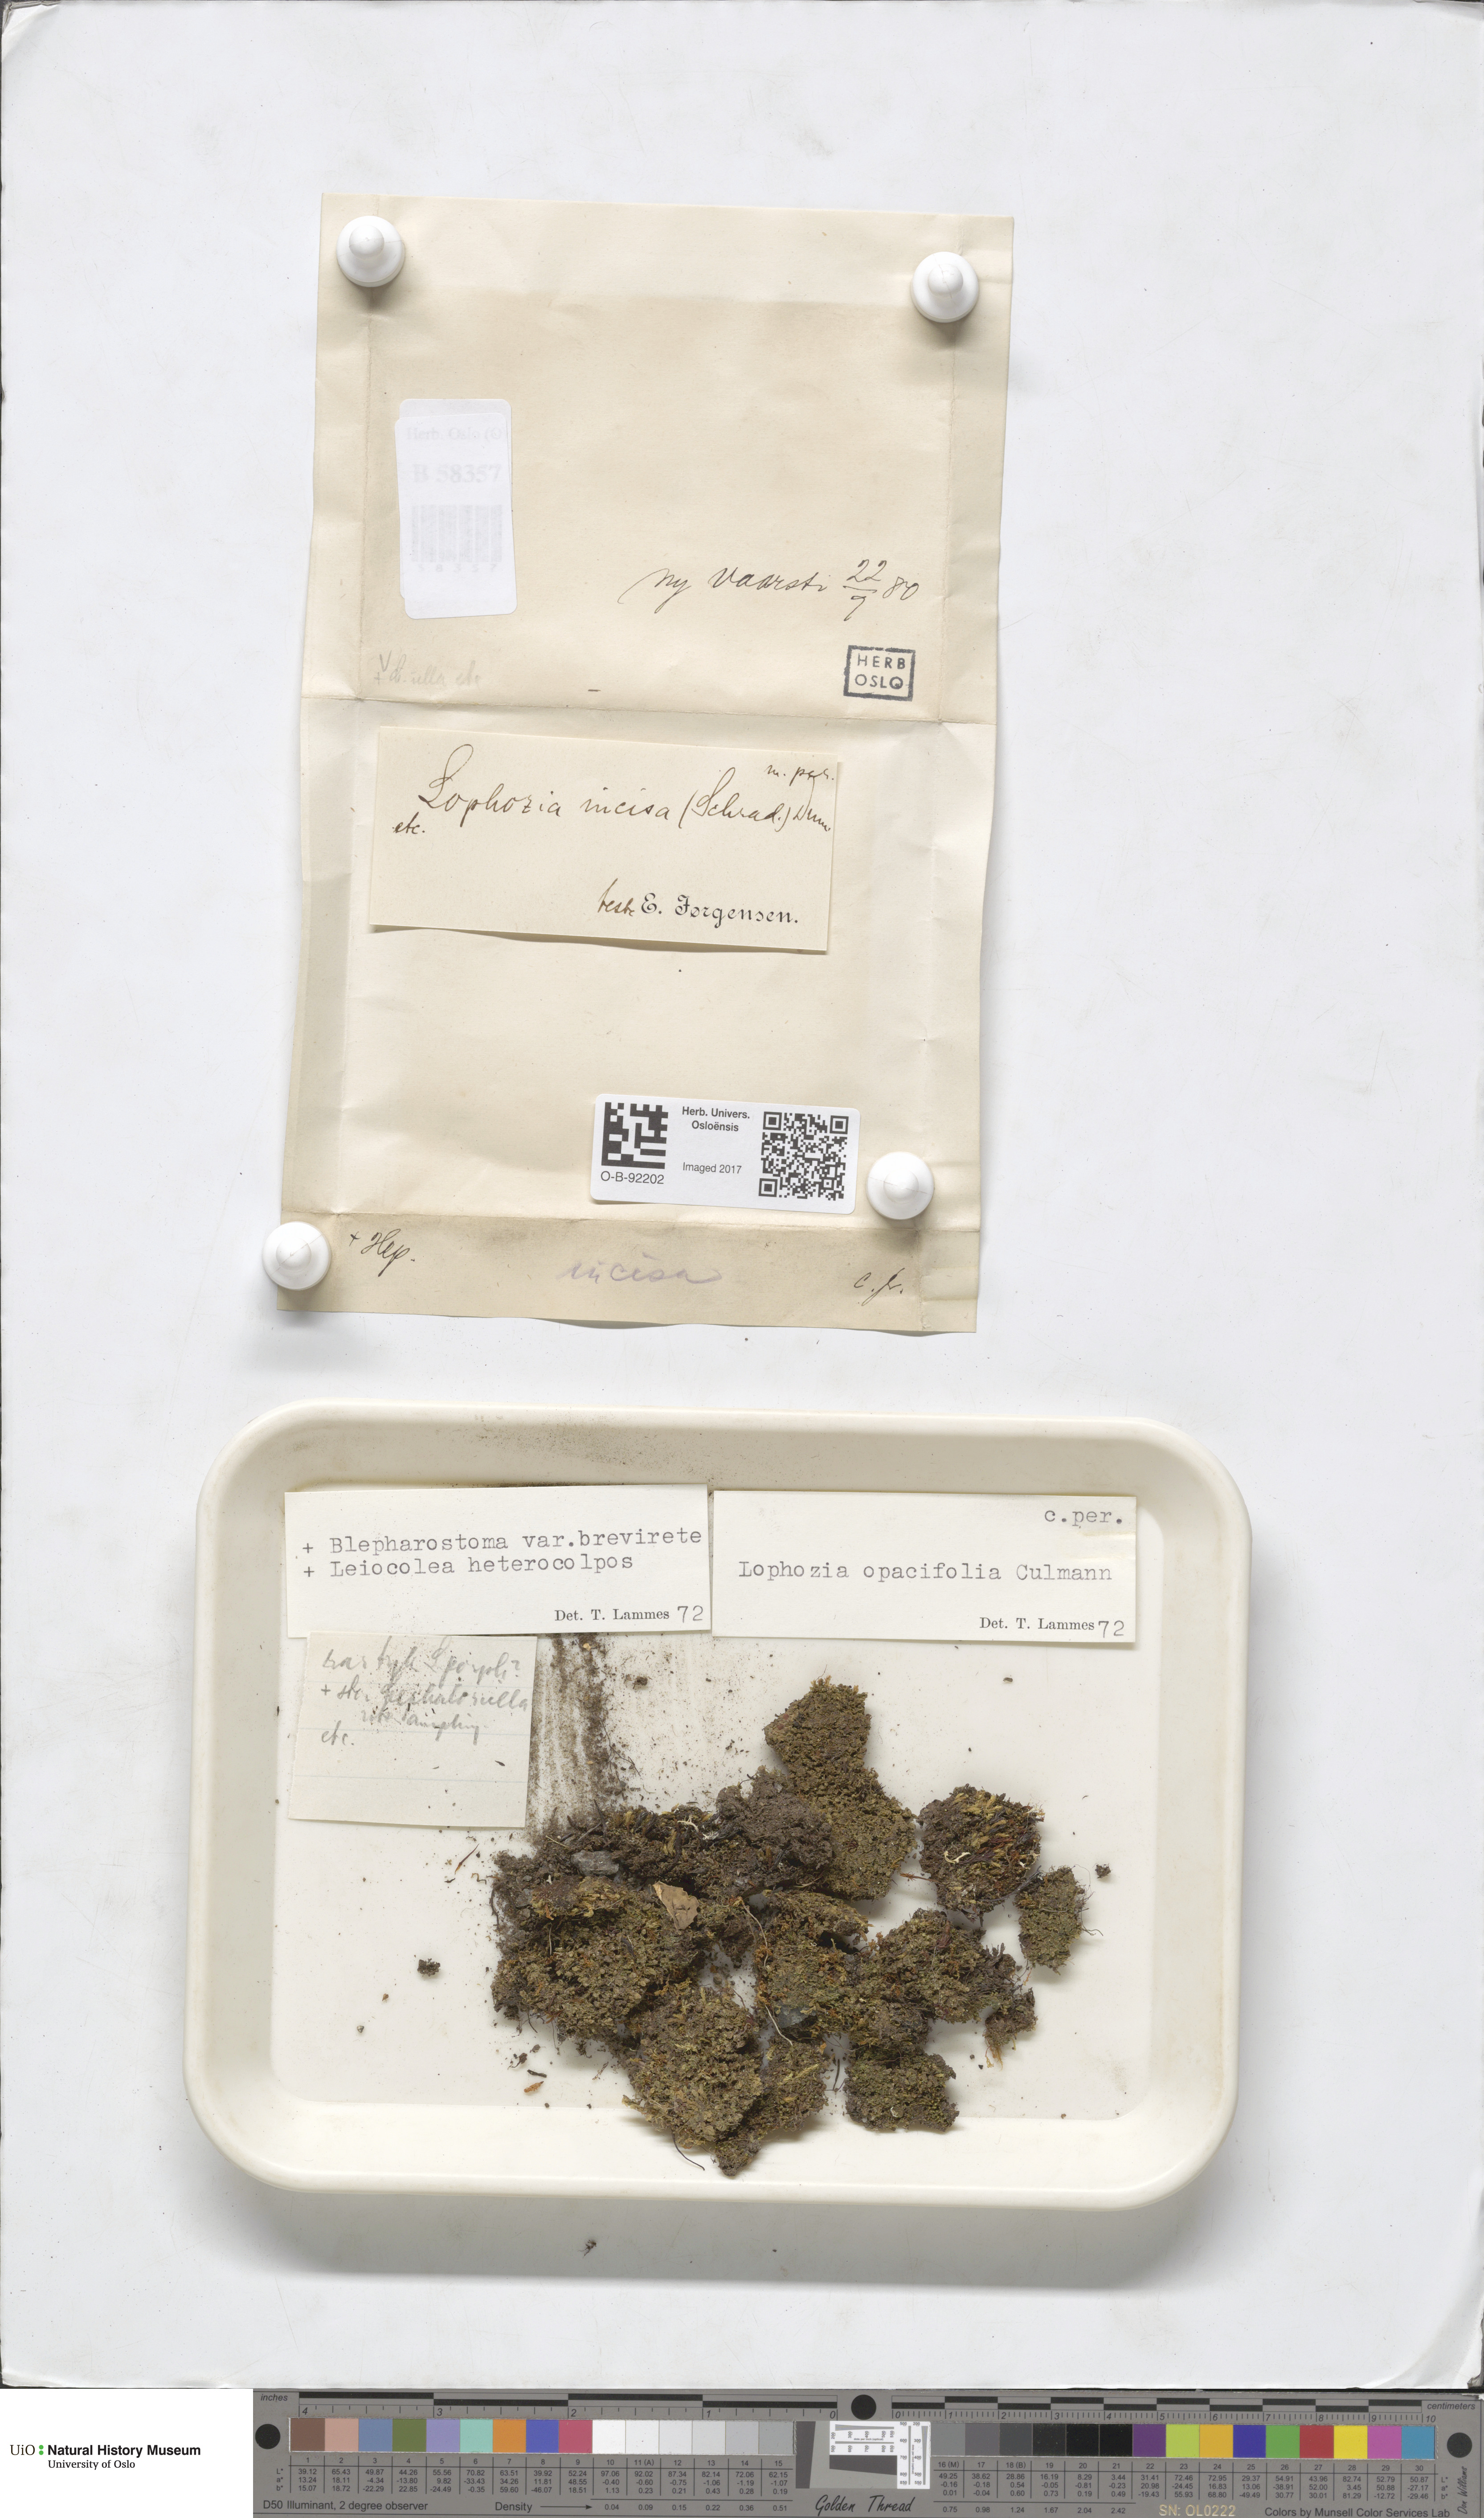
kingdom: Plantae
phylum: Marchantiophyta
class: Jungermanniopsida
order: Jungermanniales
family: Scapaniaceae
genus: Schistochilopsis
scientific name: Schistochilopsis opacifolia
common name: Alpine jagged notchwort
